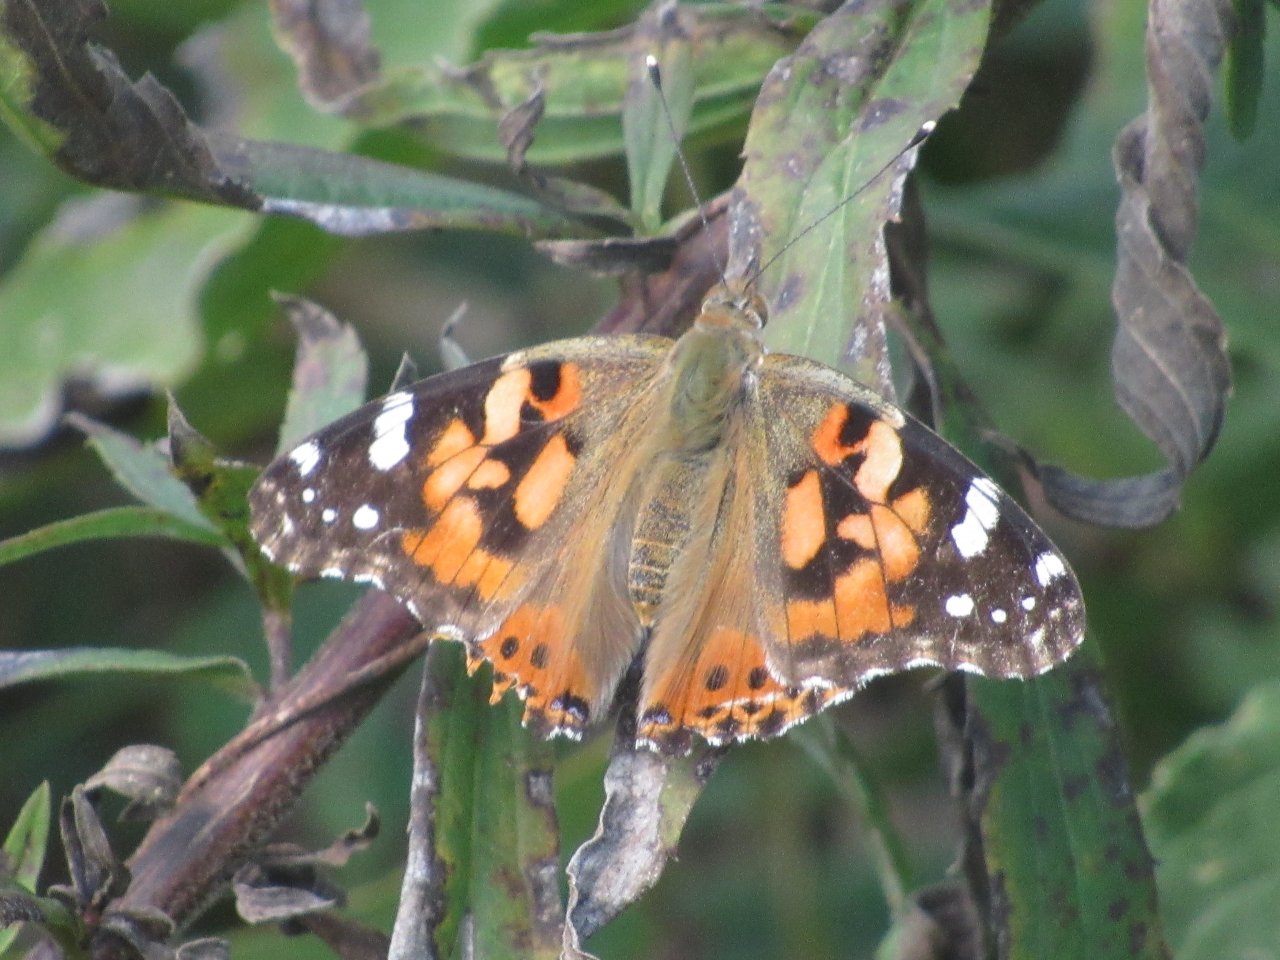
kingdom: Animalia
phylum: Arthropoda
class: Insecta
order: Lepidoptera
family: Nymphalidae
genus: Vanessa
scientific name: Vanessa cardui
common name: Painted Lady
